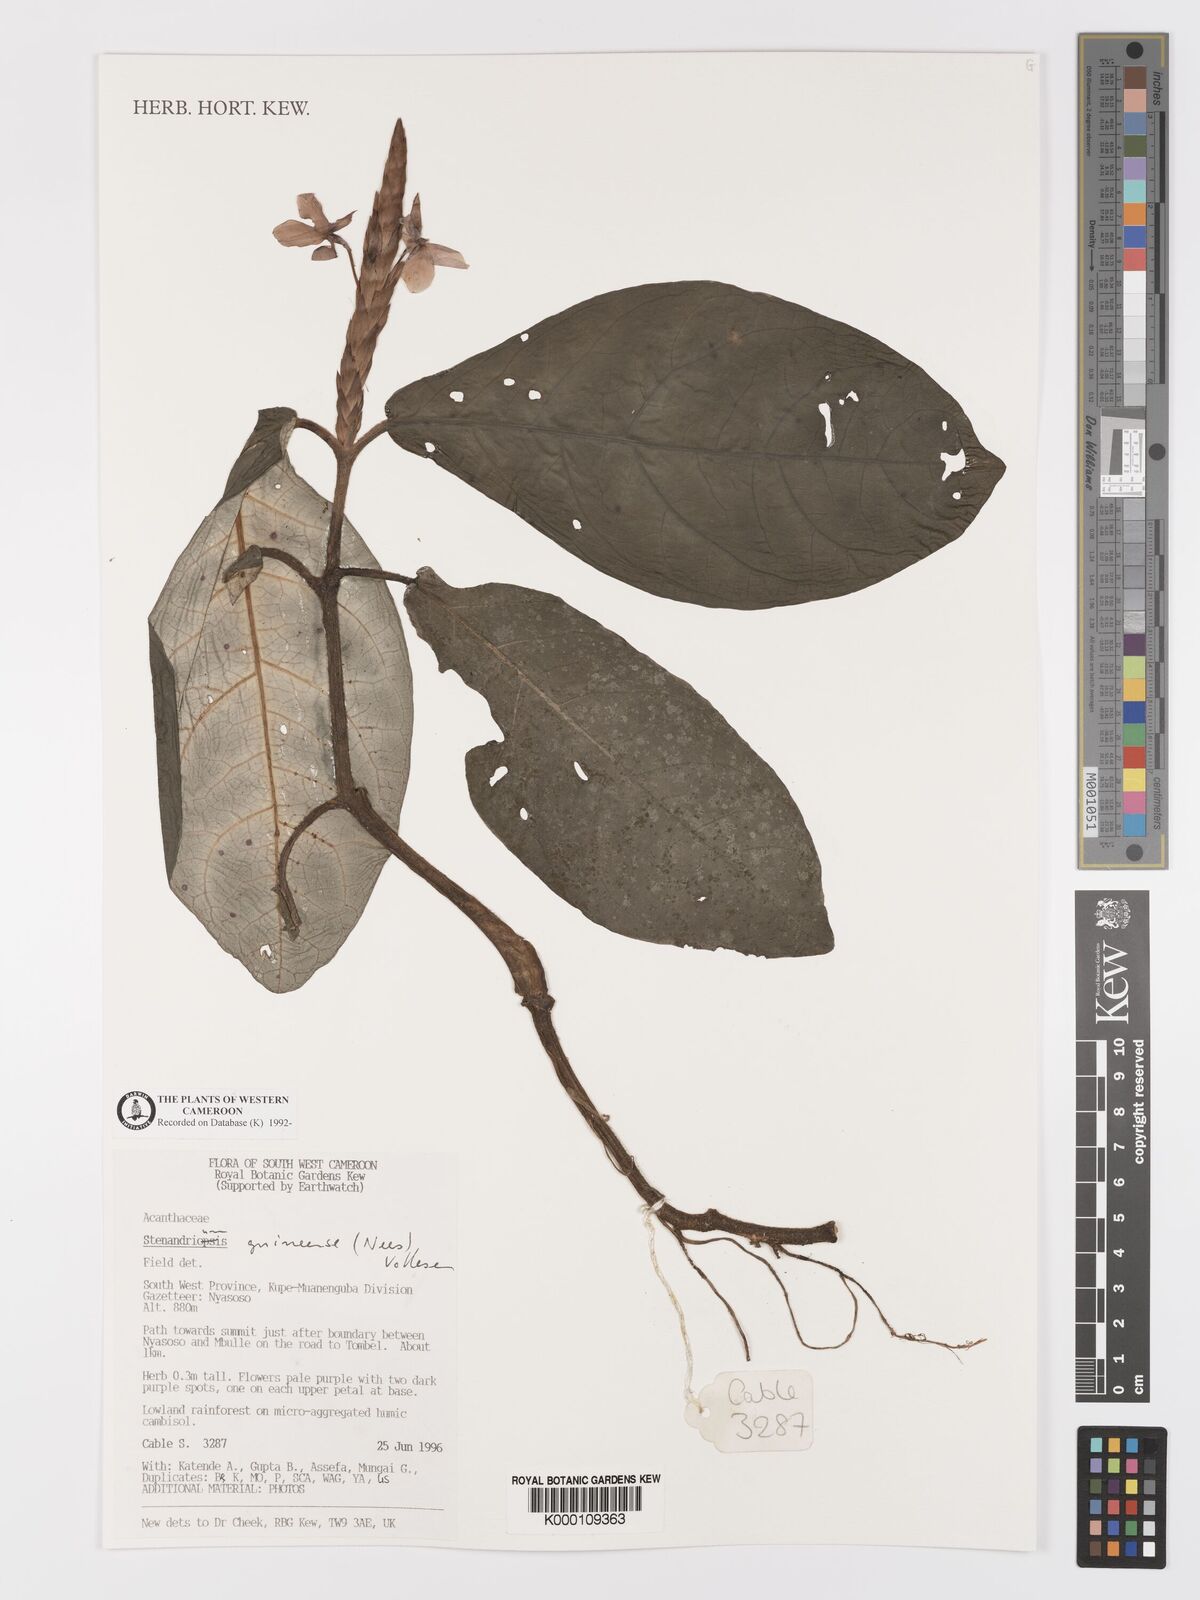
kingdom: Plantae
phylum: Tracheophyta
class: Magnoliopsida
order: Lamiales
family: Acanthaceae
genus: Stenandriopsis
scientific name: Stenandriopsis guineensis
